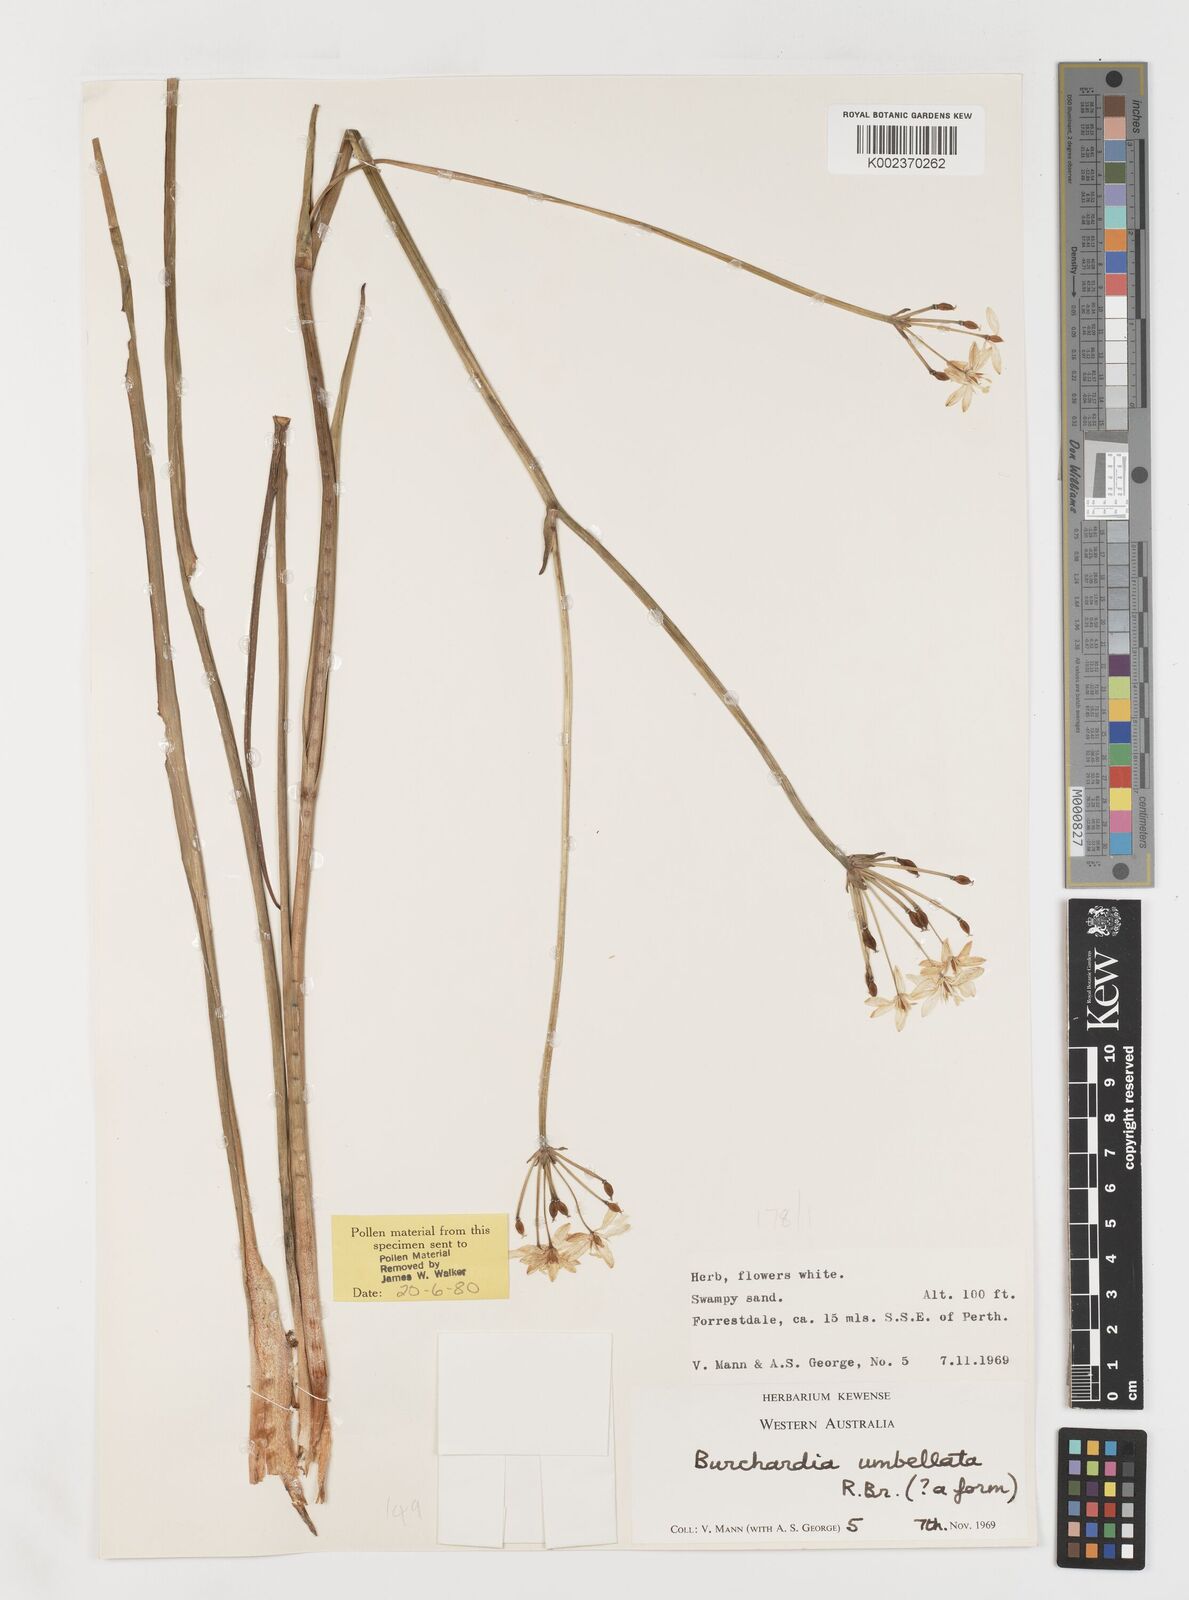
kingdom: Plantae
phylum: Tracheophyta
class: Liliopsida
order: Liliales
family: Colchicaceae
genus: Burchardia
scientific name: Burchardia umbellata
